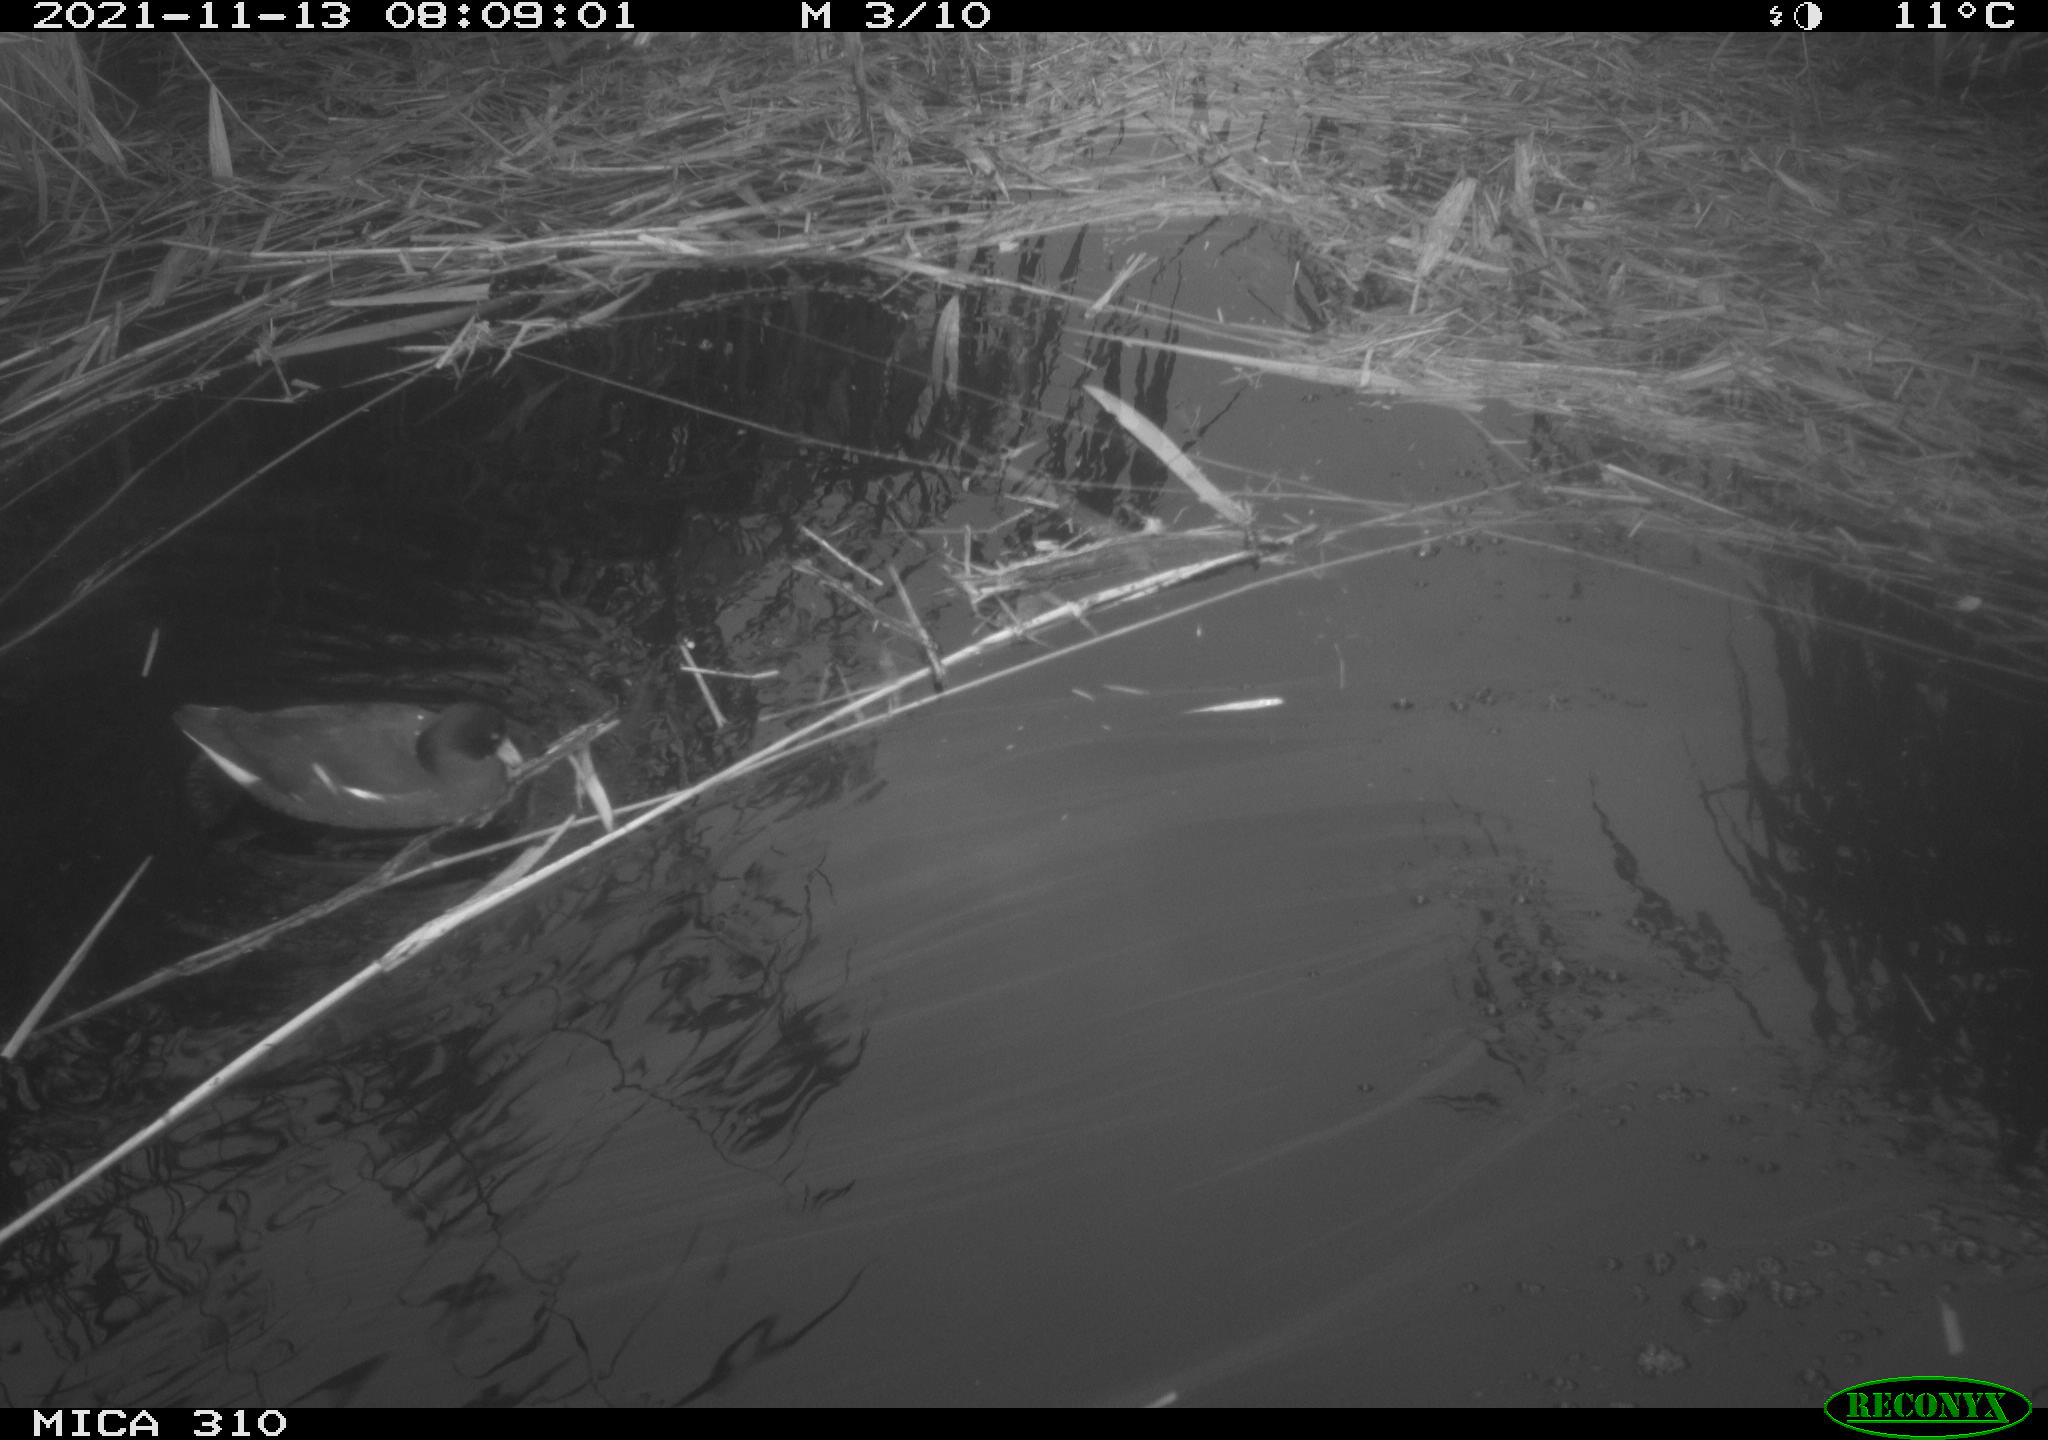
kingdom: Animalia
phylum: Chordata
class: Aves
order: Gruiformes
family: Rallidae
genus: Gallinula
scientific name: Gallinula chloropus
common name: Common moorhen
